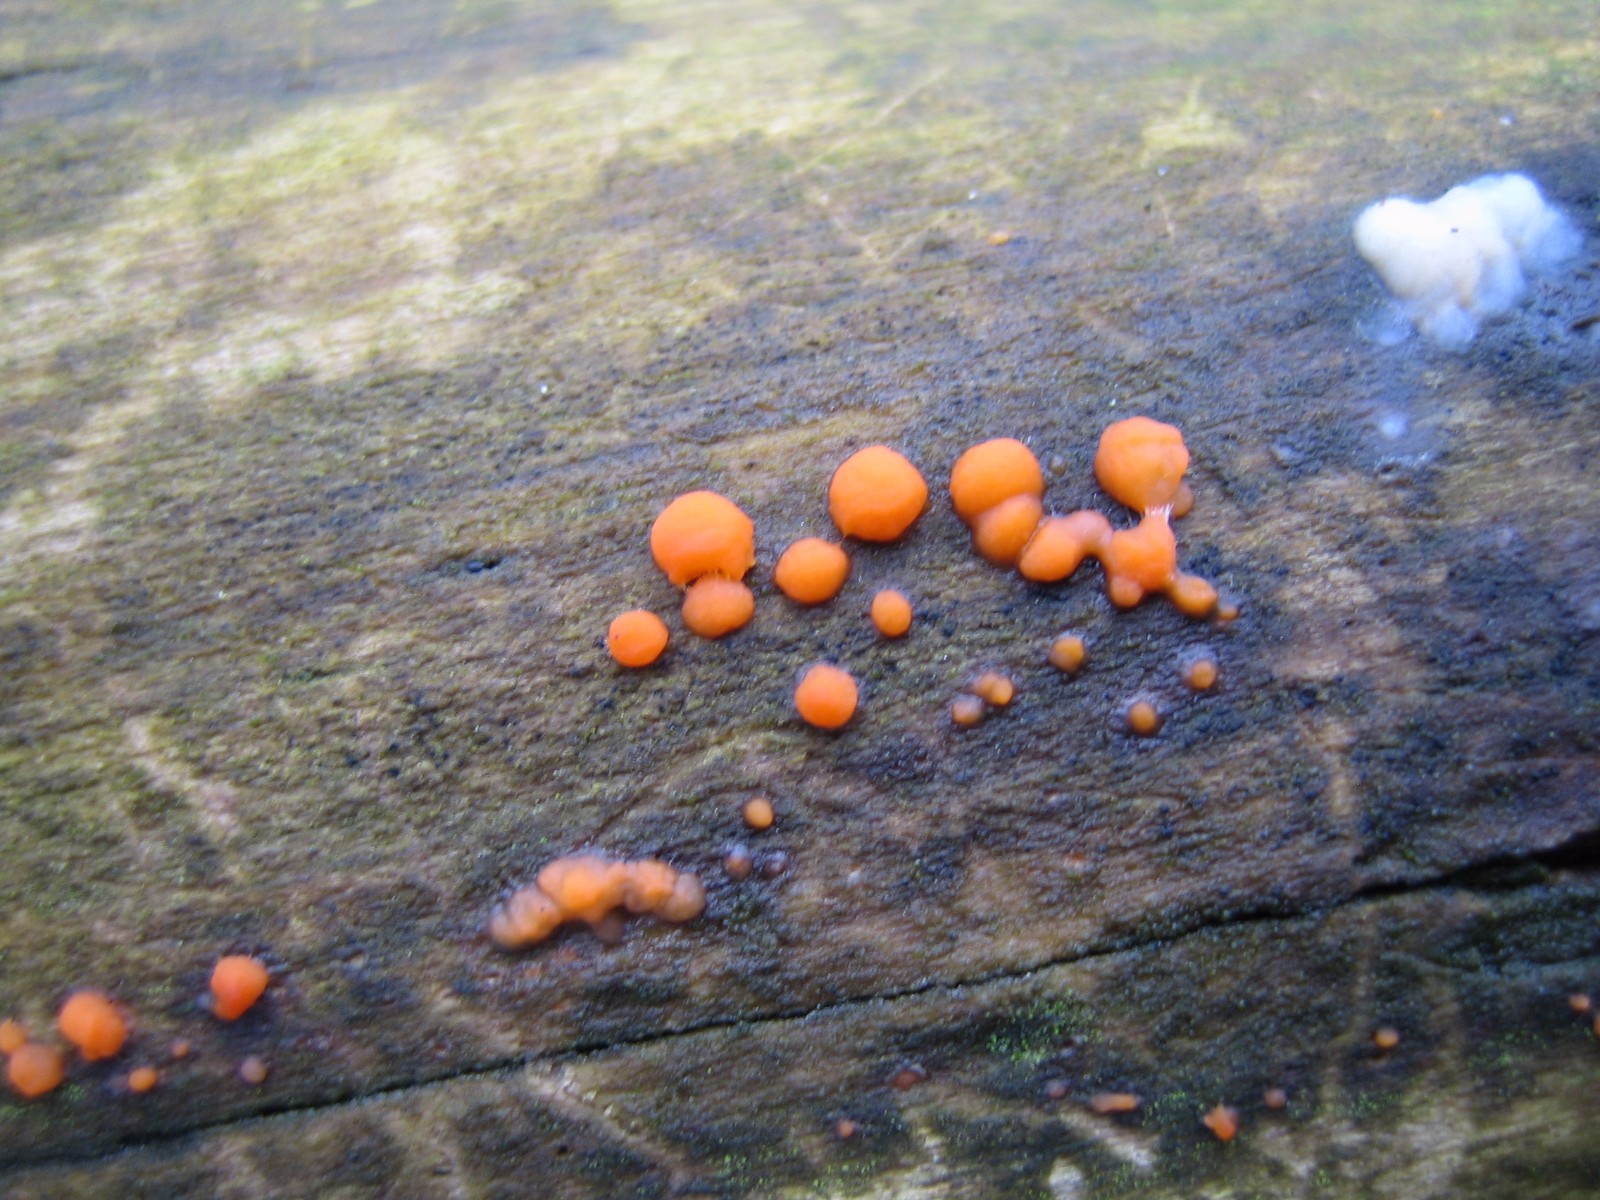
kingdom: Fungi
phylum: Basidiomycota
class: Dacrymycetes
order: Dacrymycetales
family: Dacrymycetaceae
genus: Dacrymyces
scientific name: Dacrymyces stillatus
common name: almindelig tåresvamp
